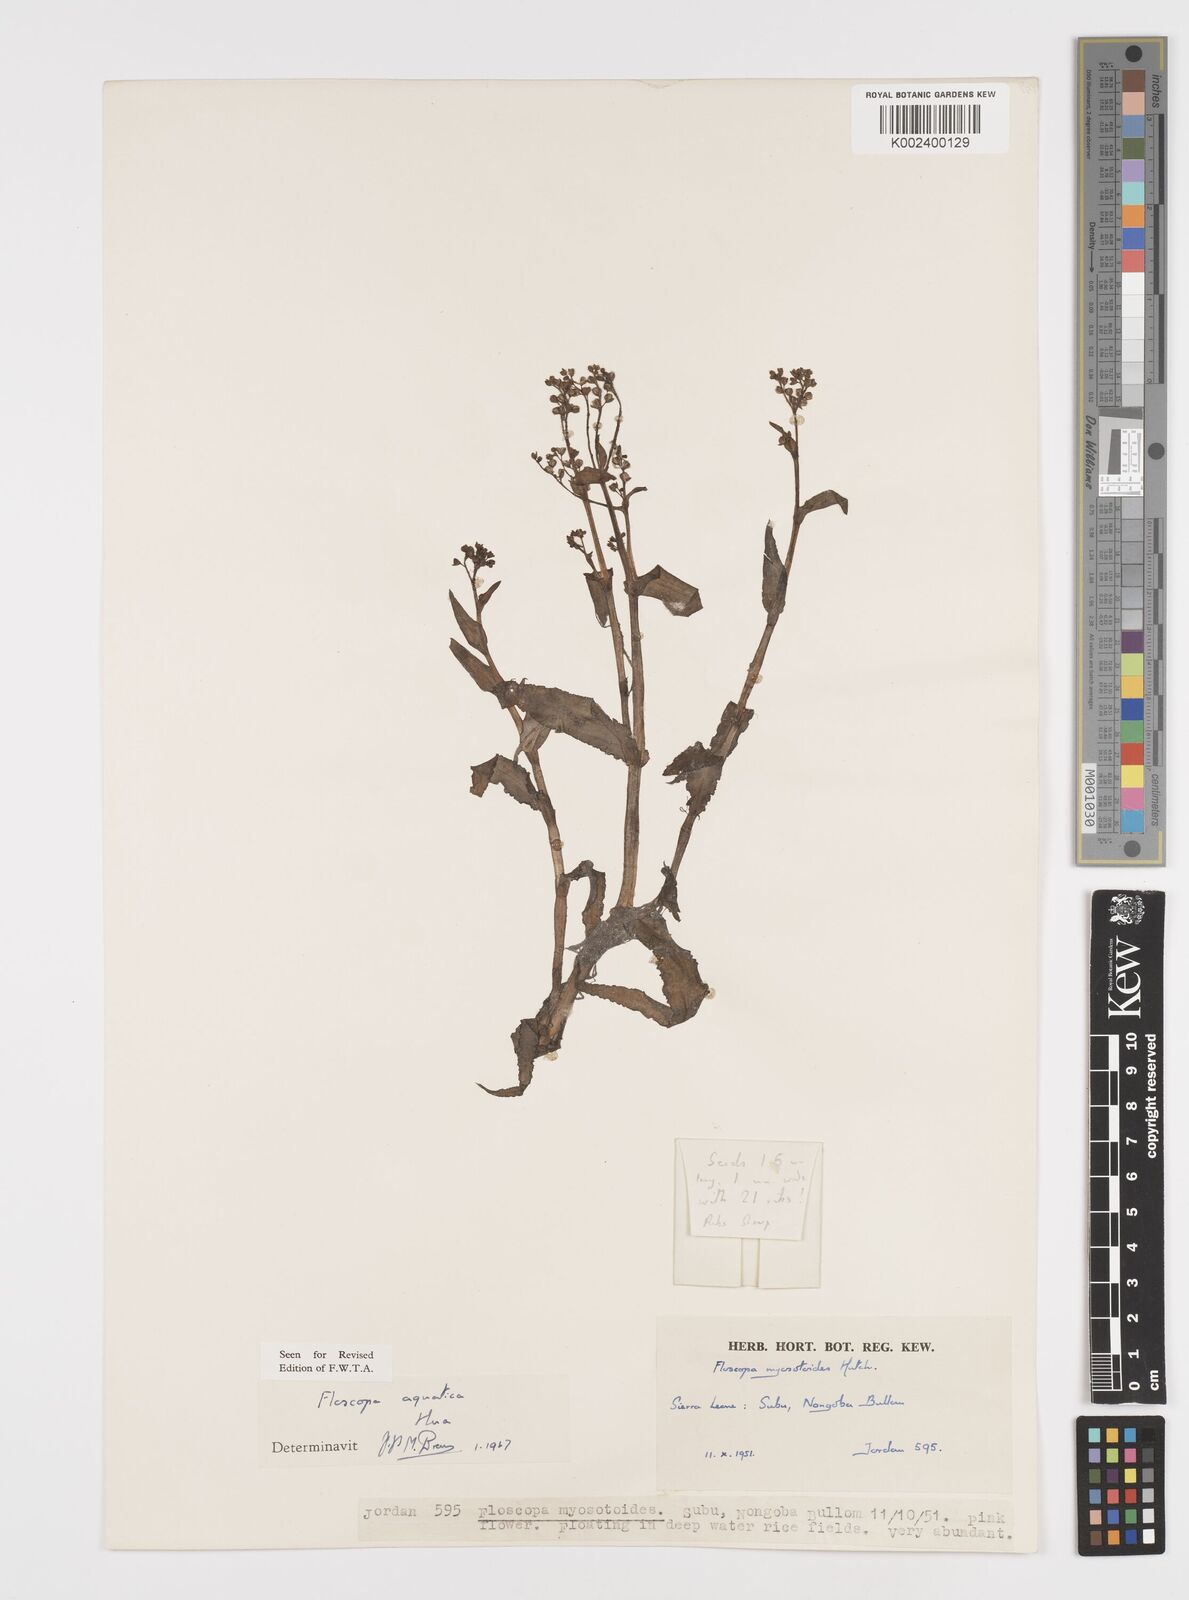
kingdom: Plantae
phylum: Tracheophyta
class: Liliopsida
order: Commelinales
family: Commelinaceae
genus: Floscopa
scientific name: Floscopa aquatica
